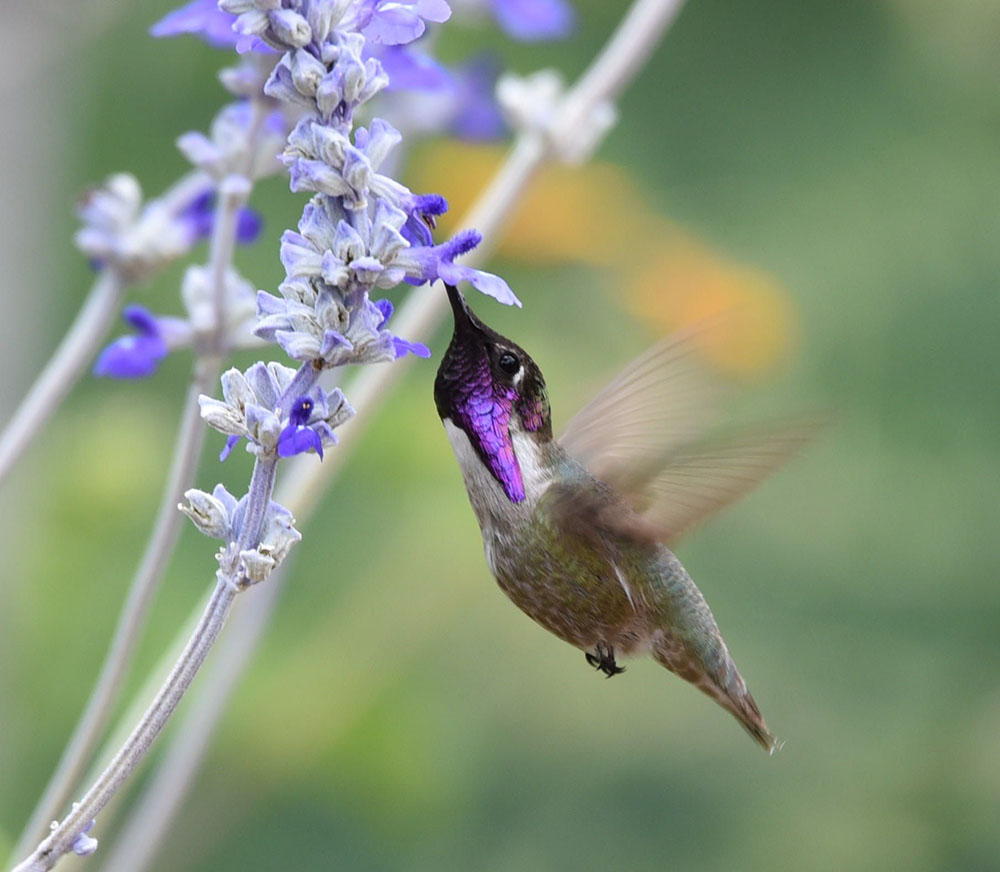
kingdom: Animalia
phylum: Chordata
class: Aves
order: Apodiformes
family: Trochilidae
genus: Calypte
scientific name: Calypte costae
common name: Costa's hummingbird
